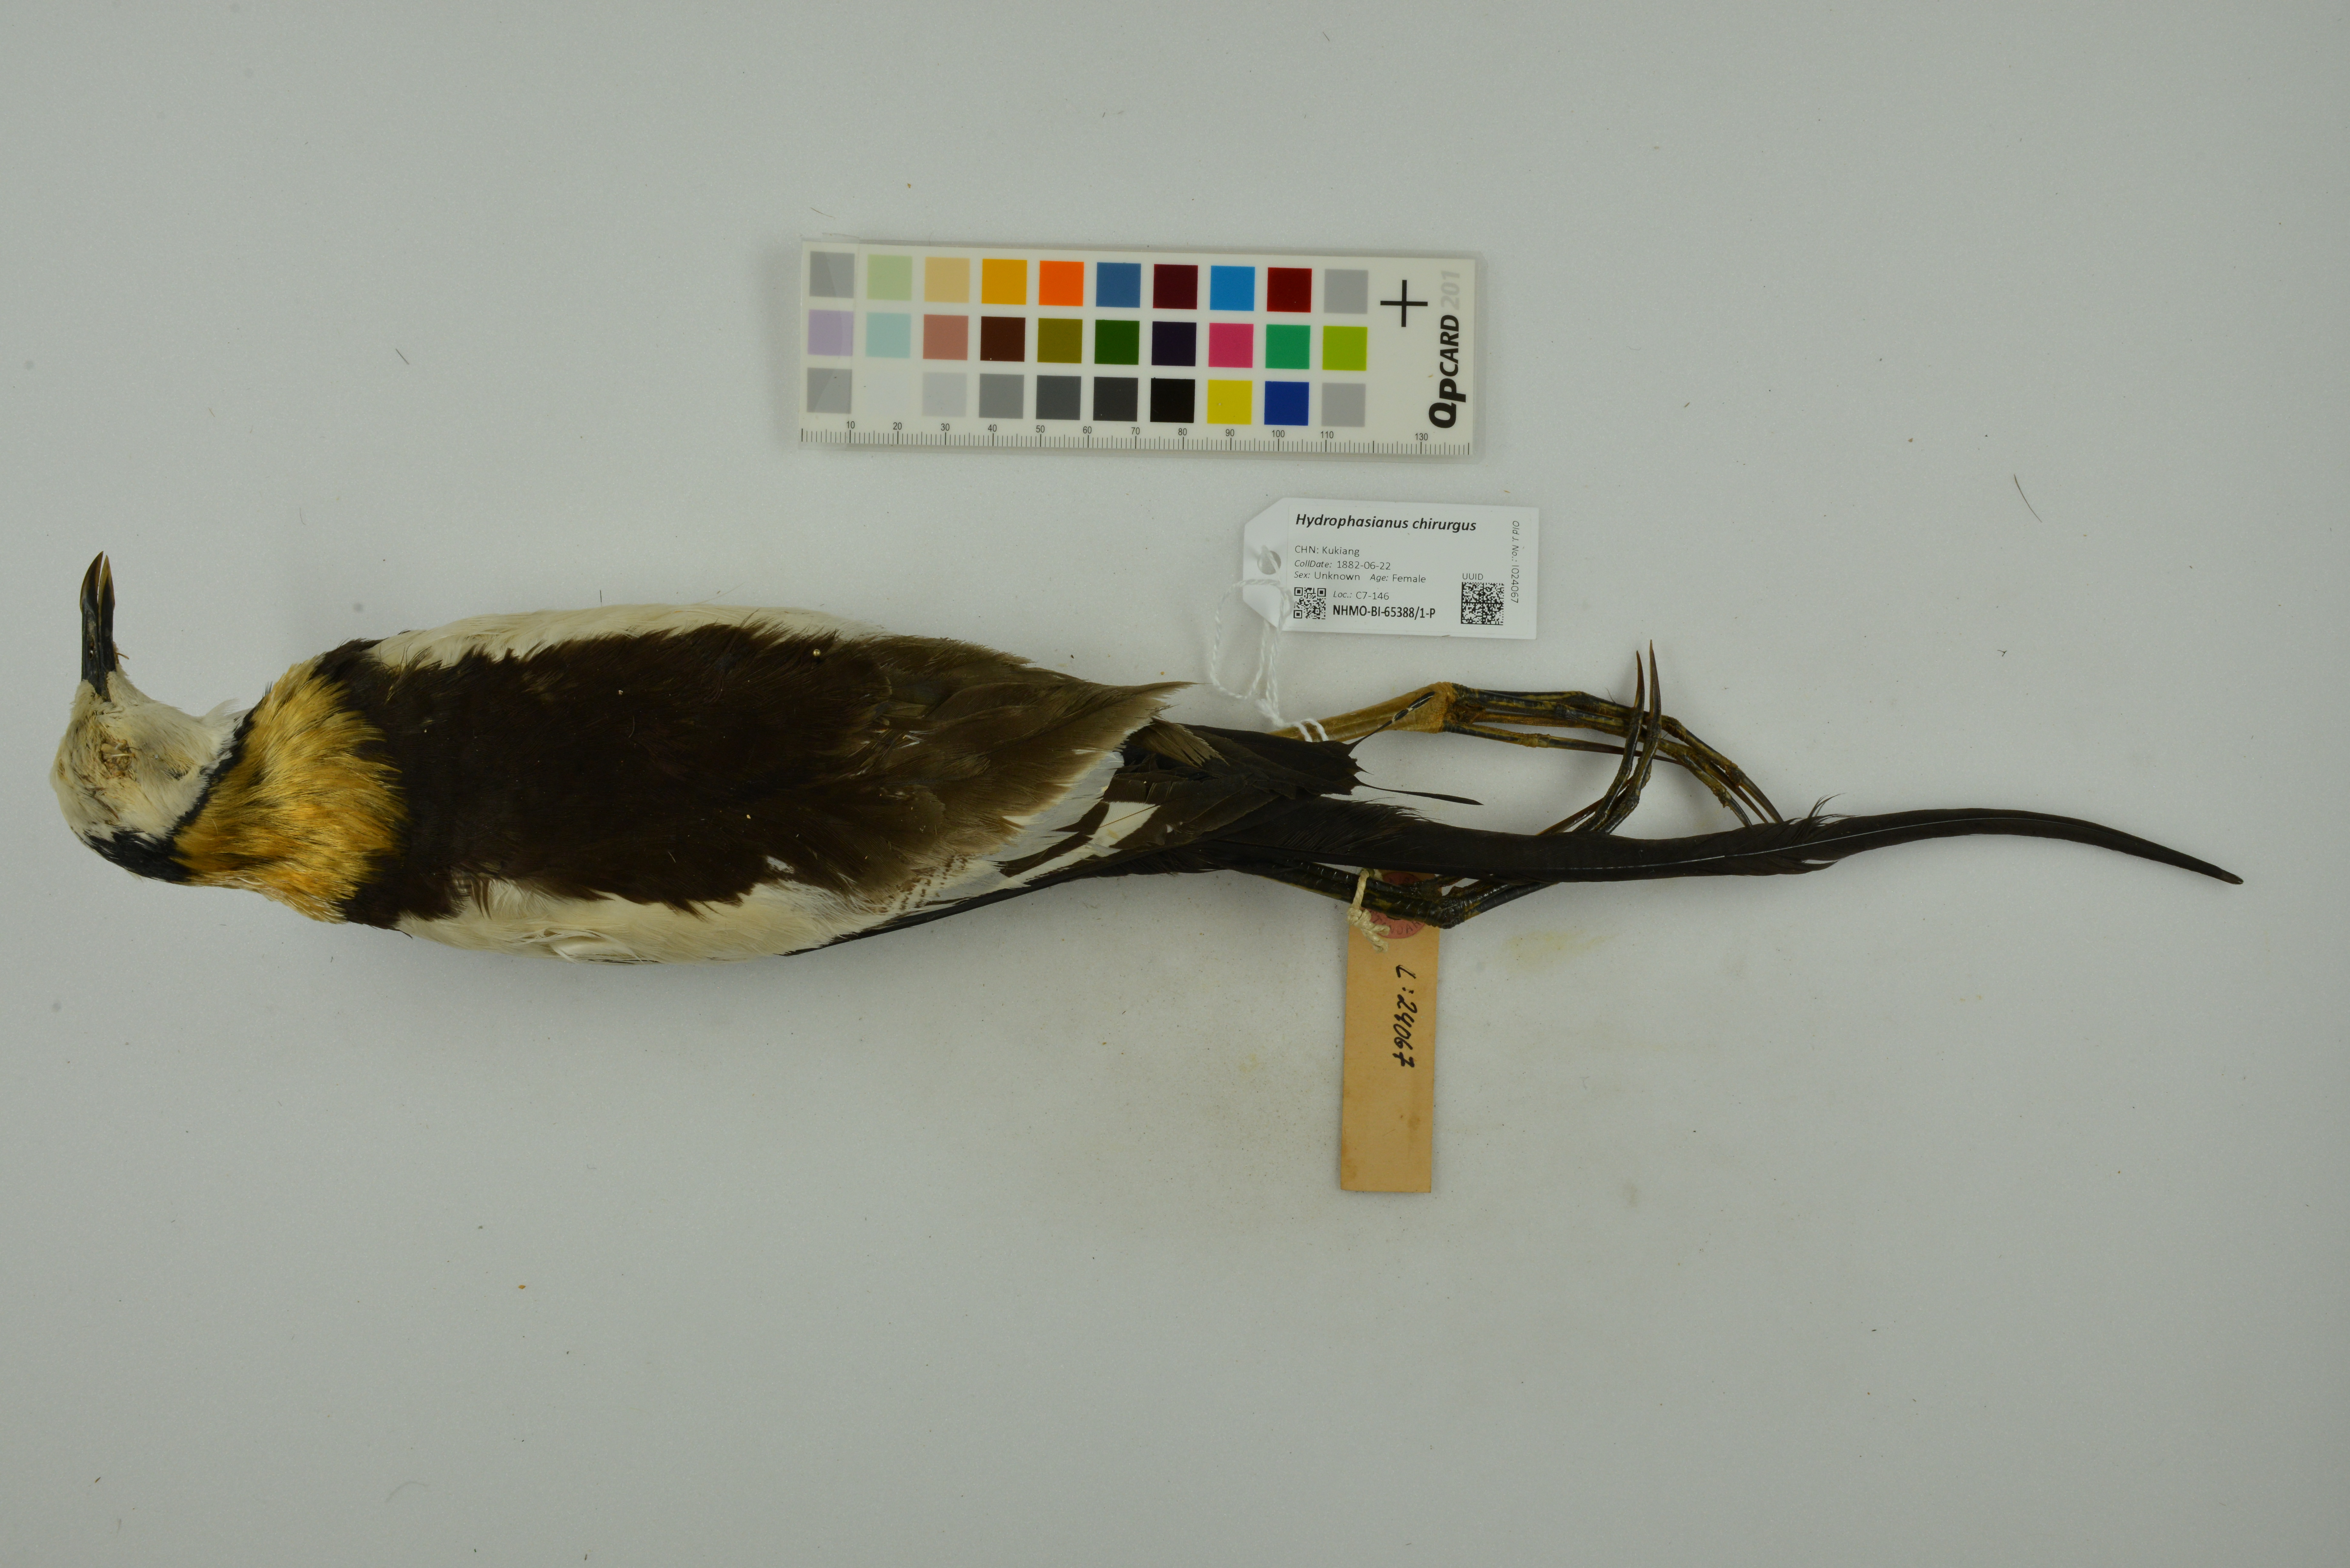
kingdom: Animalia
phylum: Chordata
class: Aves
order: Charadriiformes
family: Jacanidae
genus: Hydrophasianus
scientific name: Hydrophasianus chirurgus
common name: Pheasant-tailed jacana
